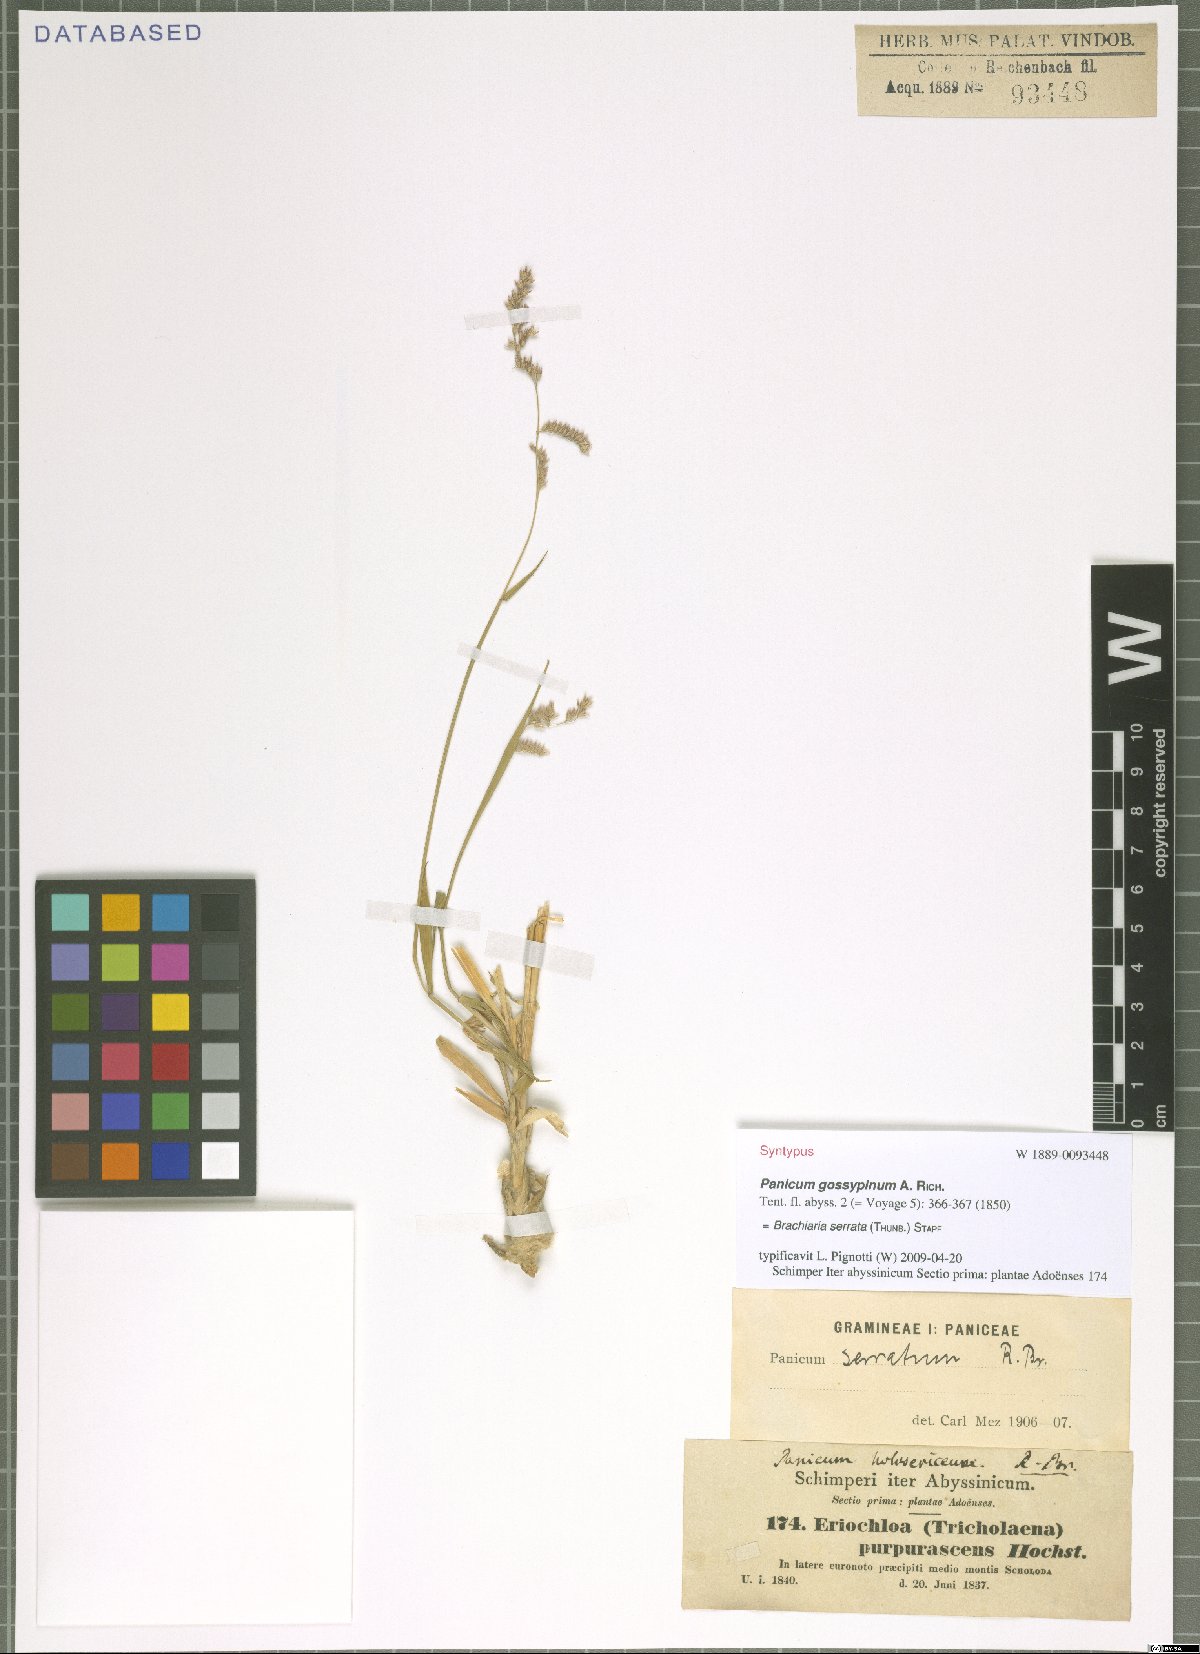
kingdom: Plantae
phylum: Tracheophyta
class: Liliopsida
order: Poales
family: Poaceae
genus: Urochloa
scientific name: Urochloa serrata
